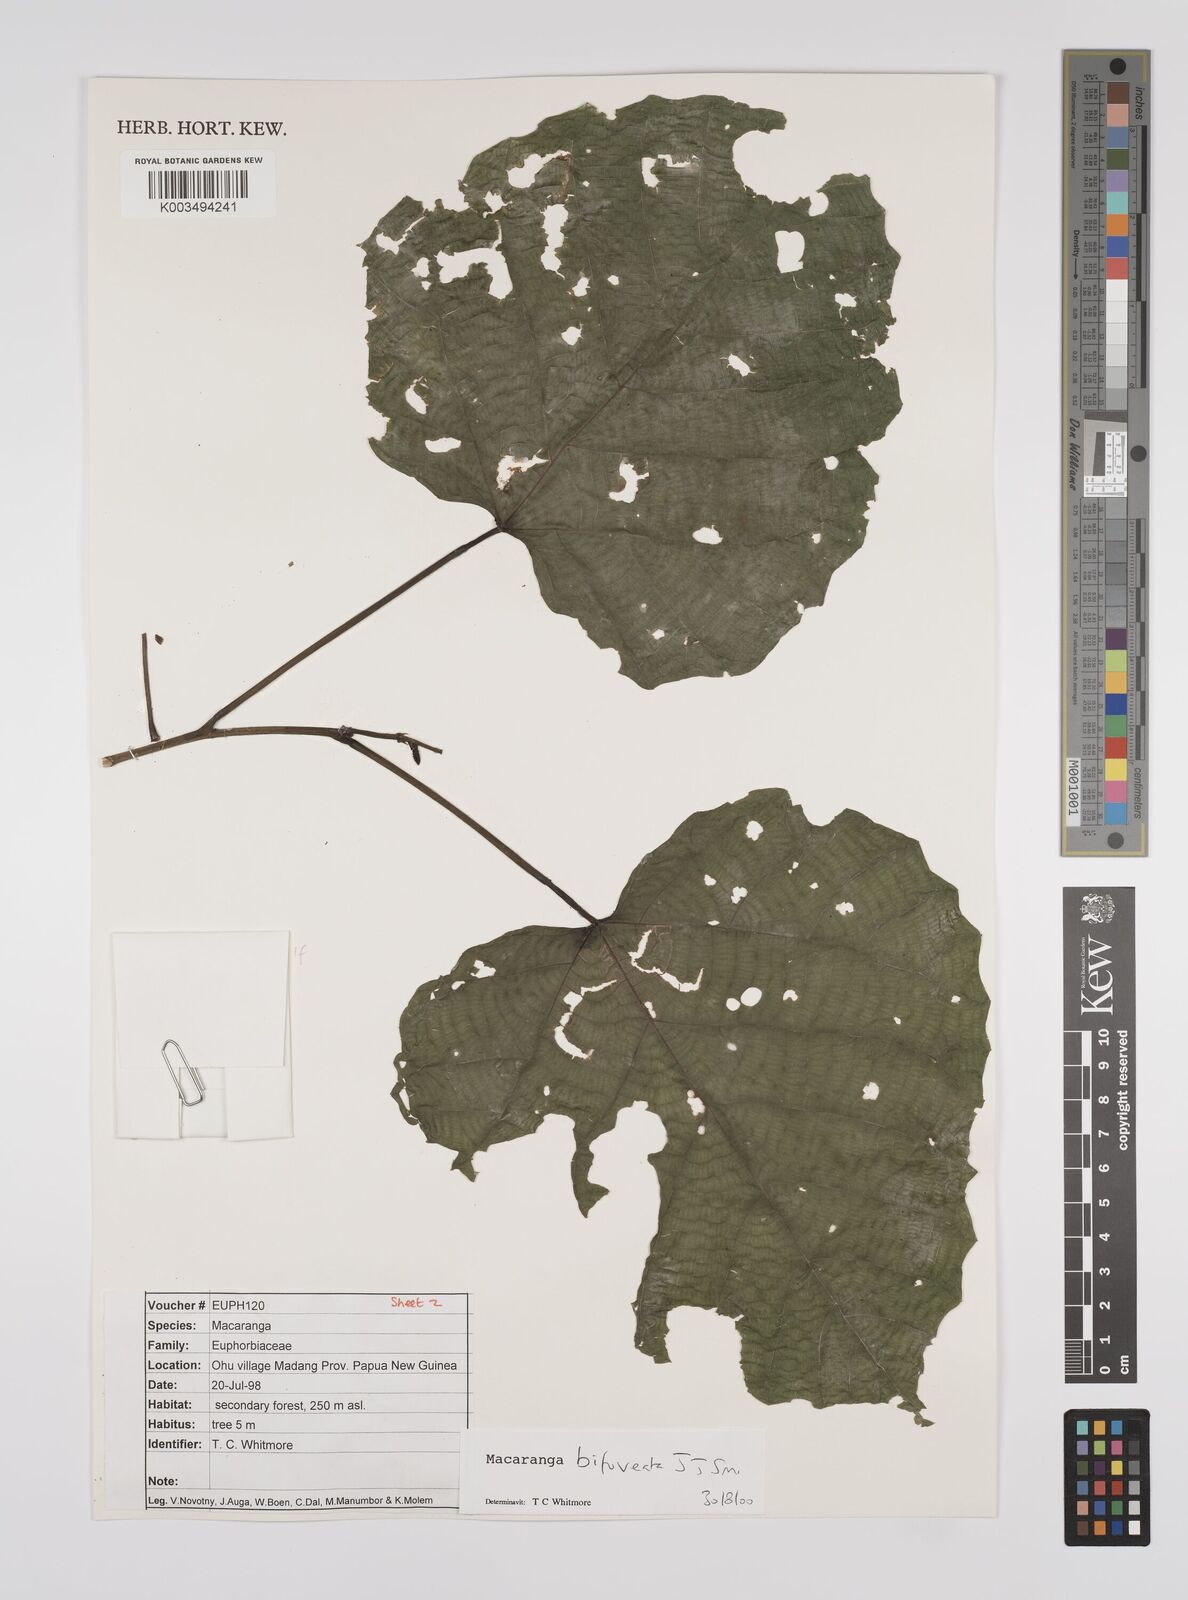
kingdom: Plantae
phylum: Tracheophyta
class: Magnoliopsida
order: Malpighiales
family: Euphorbiaceae
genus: Macaranga
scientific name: Macaranga bifoveata
